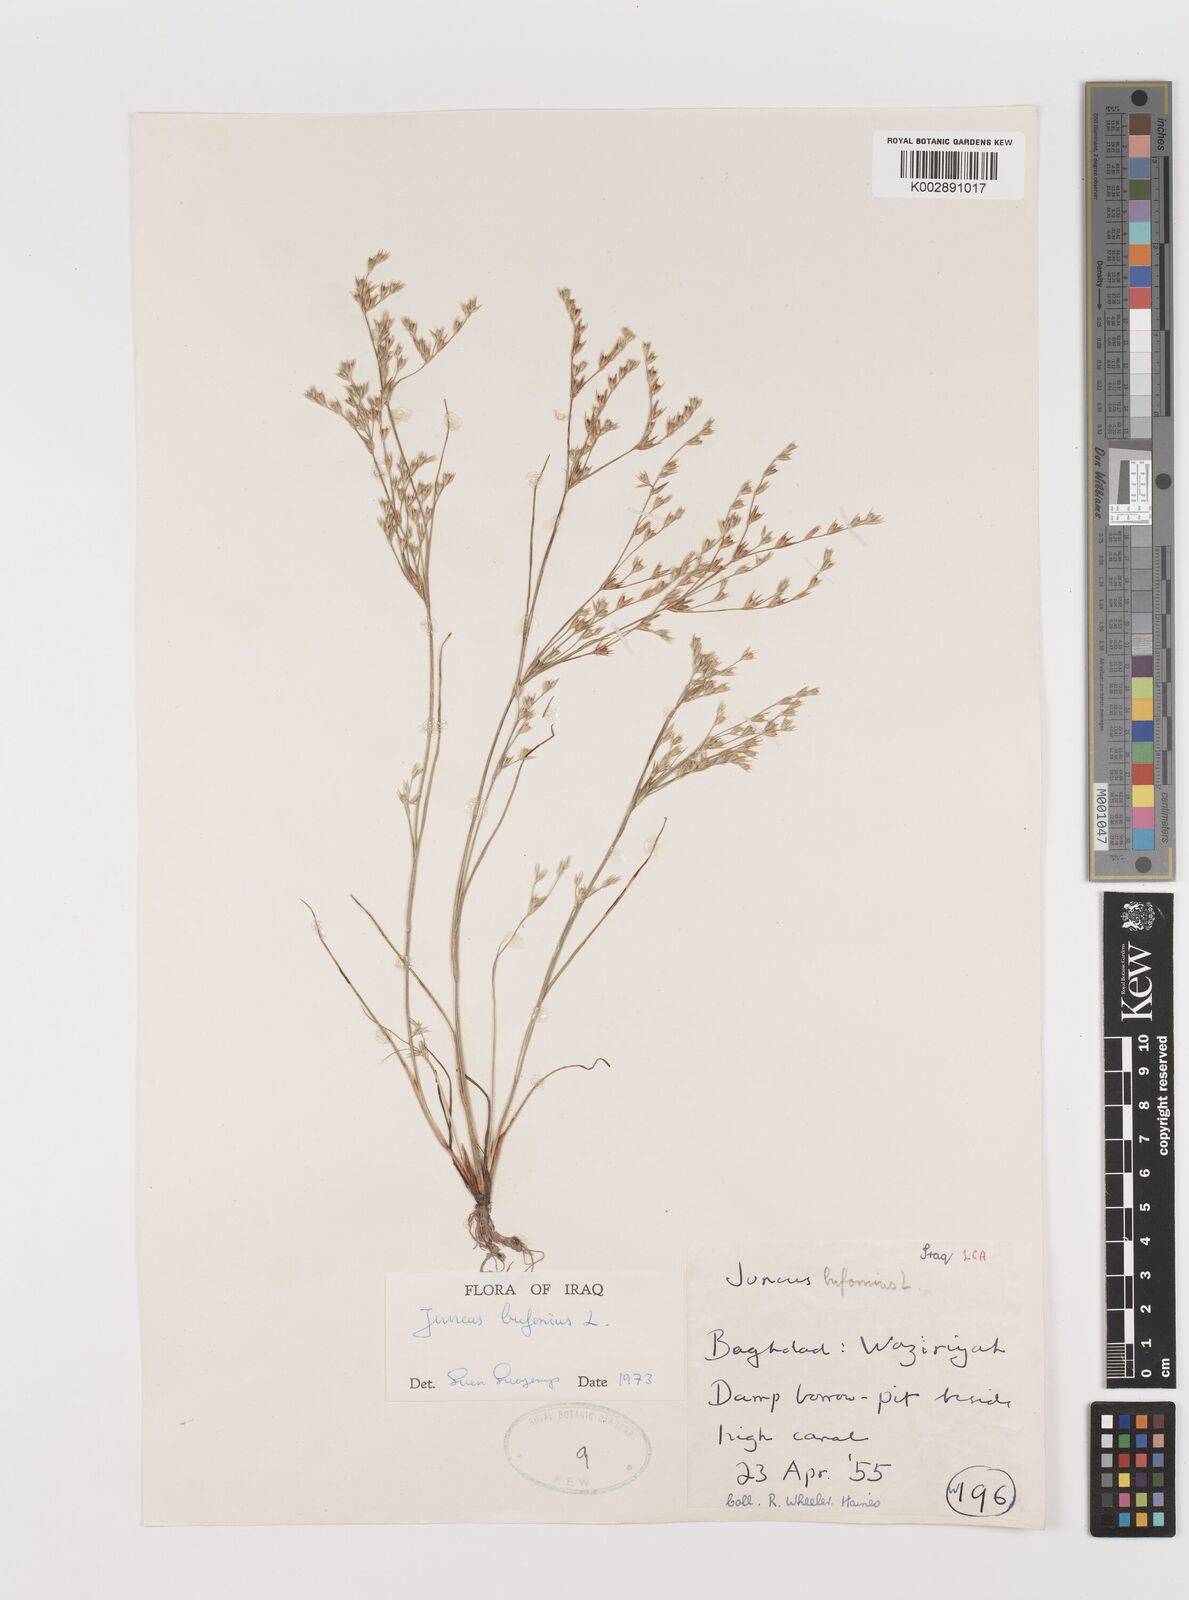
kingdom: Plantae
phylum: Tracheophyta
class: Liliopsida
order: Poales
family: Juncaceae
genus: Juncus
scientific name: Juncus bufonius
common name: Toad rush
